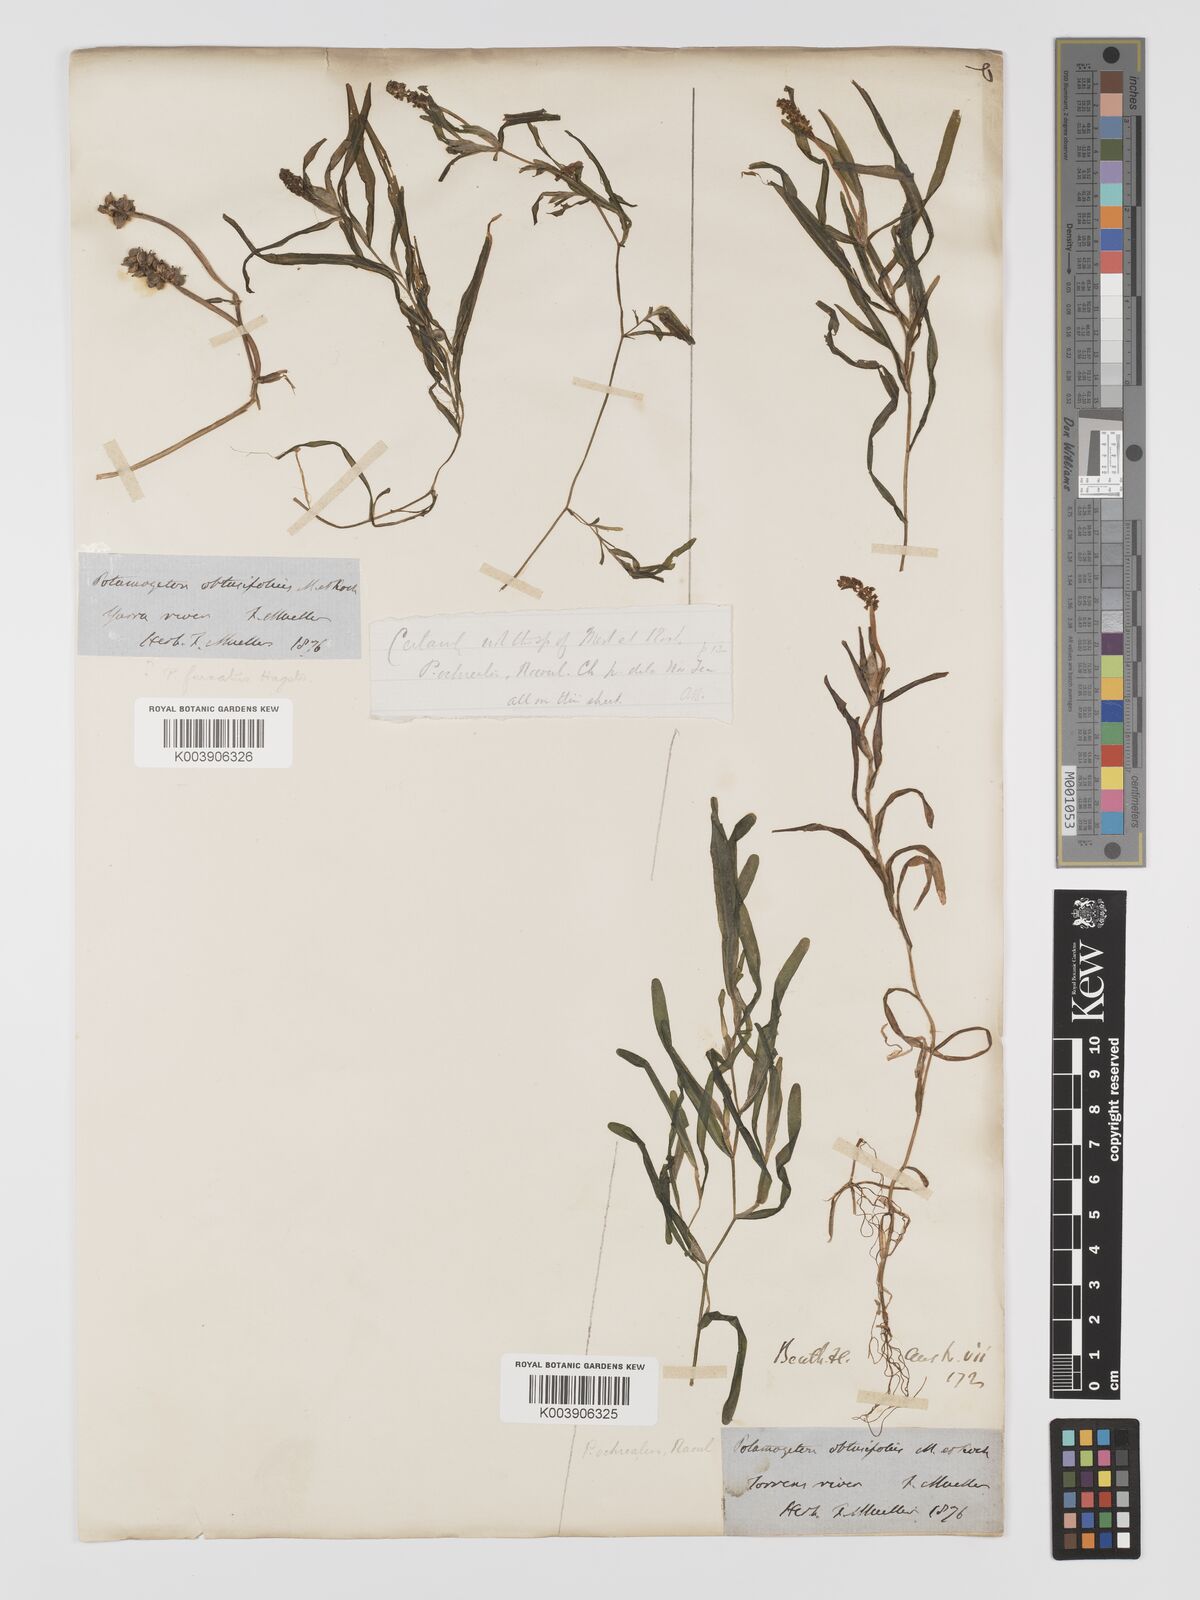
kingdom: Plantae
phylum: Tracheophyta
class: Liliopsida
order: Alismatales
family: Potamogetonaceae
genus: Potamogeton
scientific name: Potamogeton ochreatus
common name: Blunt pondweed
